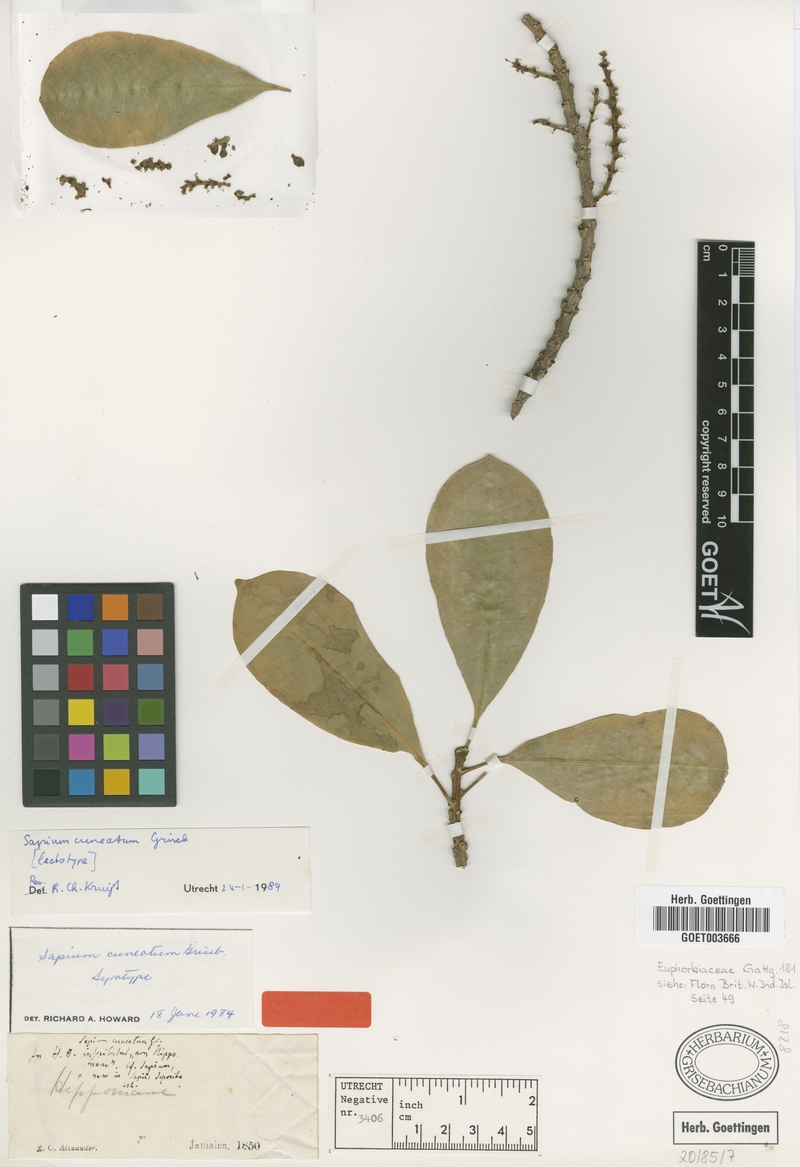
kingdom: Plantae
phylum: Tracheophyta
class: Magnoliopsida
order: Malpighiales
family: Euphorbiaceae
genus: Sapium
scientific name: Sapium cuneatum
